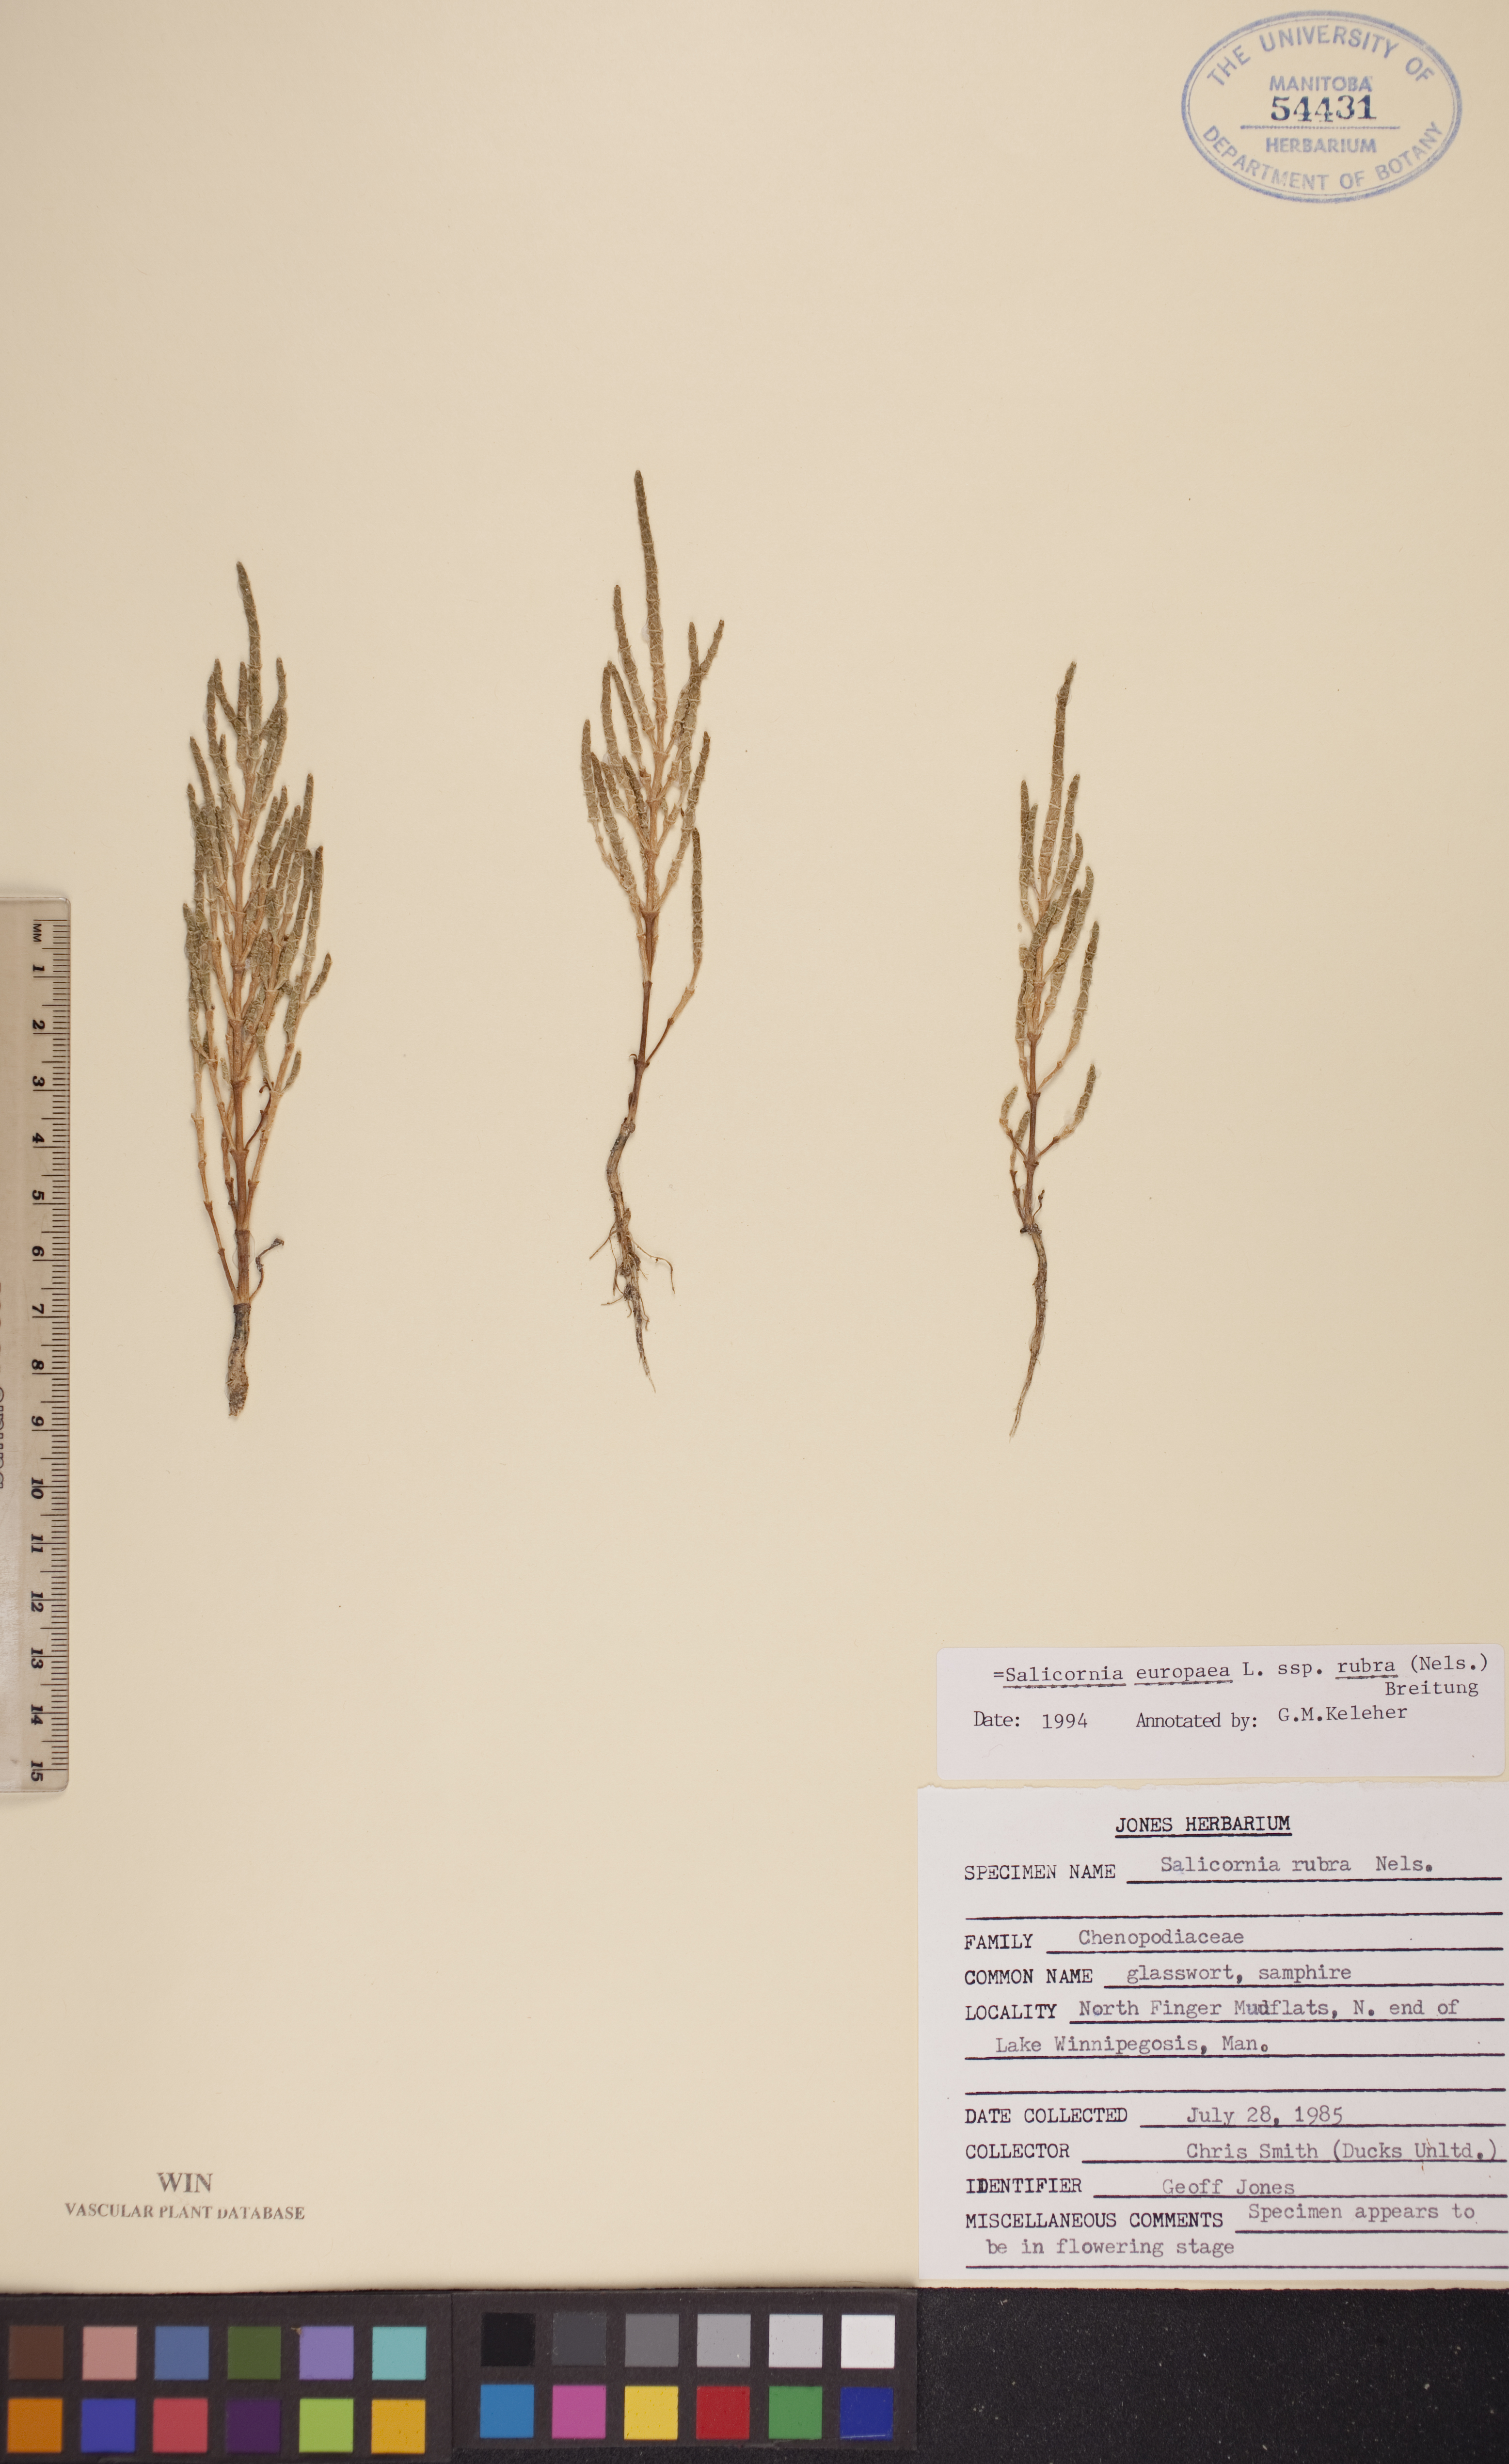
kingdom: Plantae
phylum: Tracheophyta
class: Magnoliopsida
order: Caryophyllales
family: Amaranthaceae
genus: Salicornia
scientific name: Salicornia rubra
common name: Red glasswort
